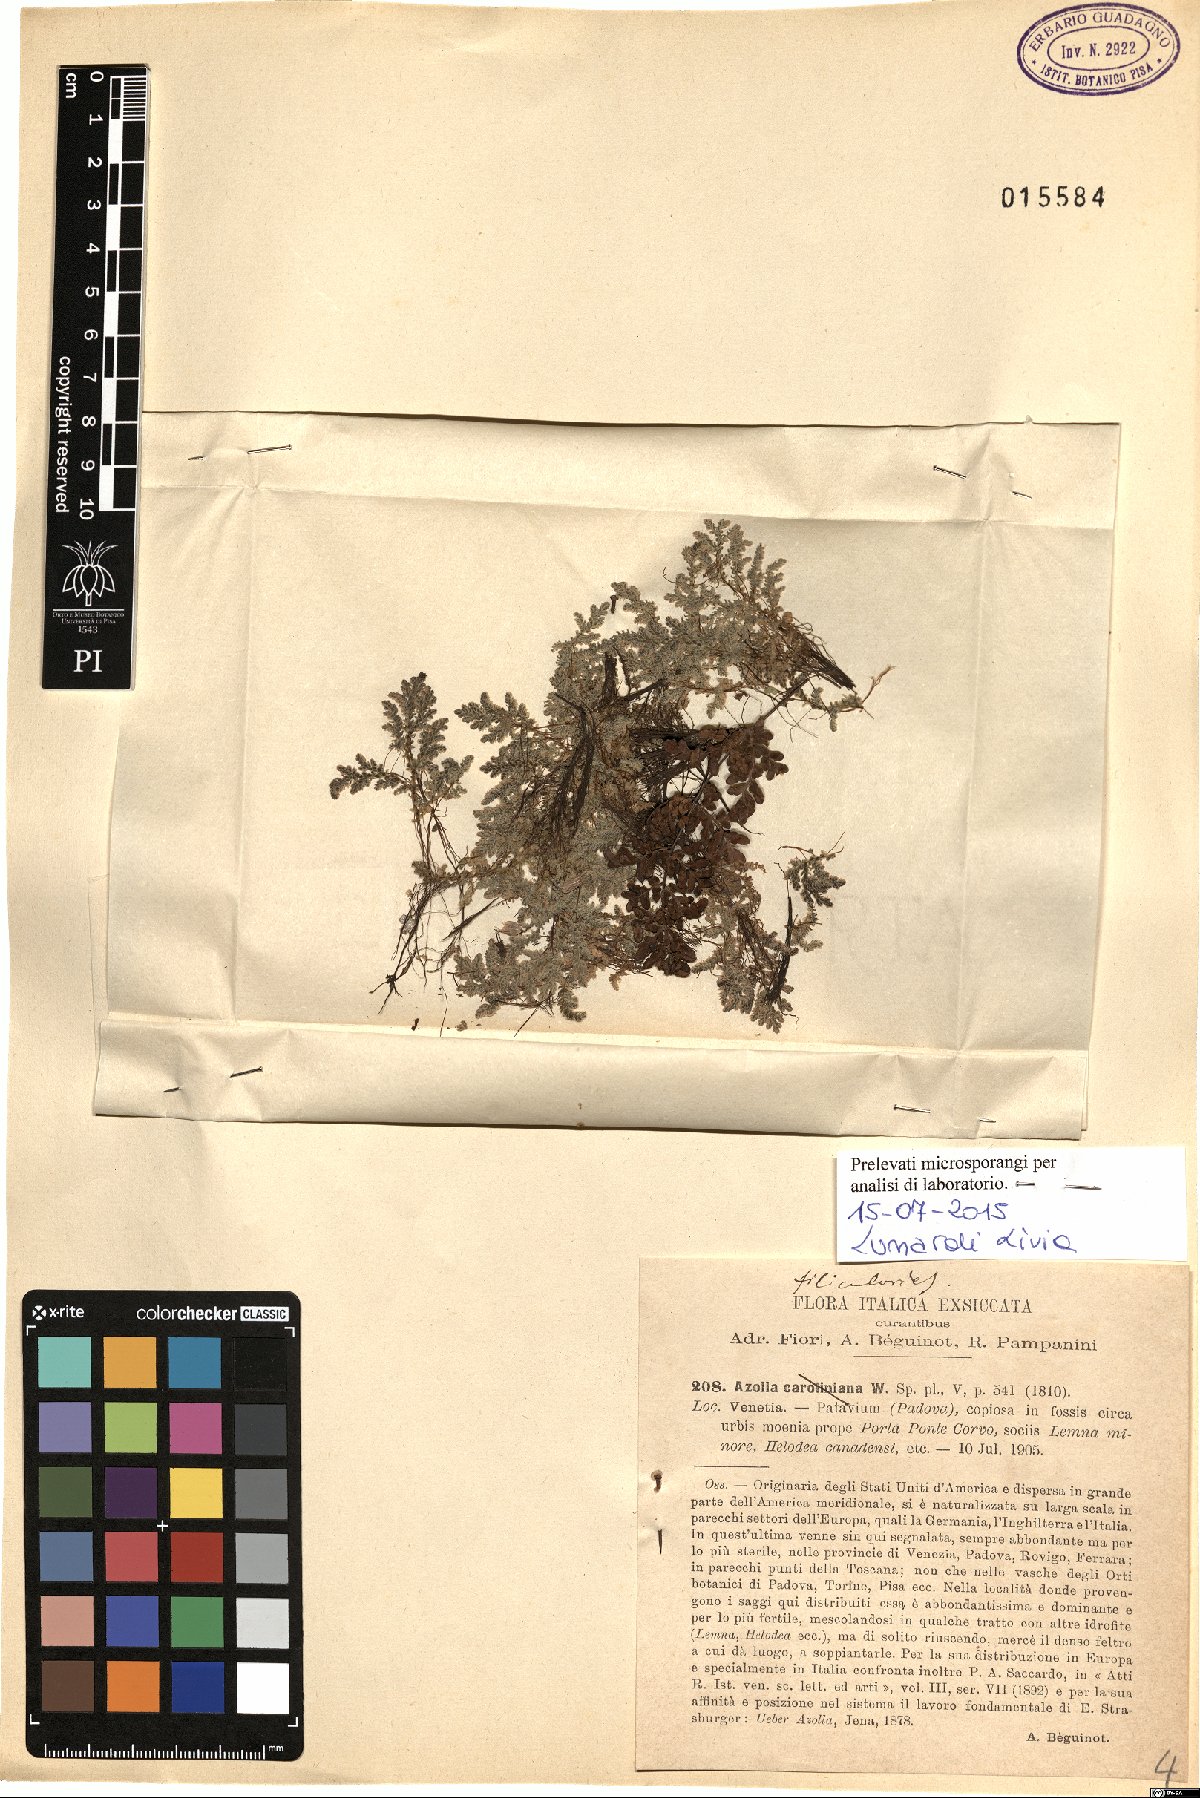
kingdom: Plantae
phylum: Tracheophyta
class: Polypodiopsida
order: Salviniales
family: Salviniaceae
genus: Azolla
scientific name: Azolla filiculoides
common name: Water fern
